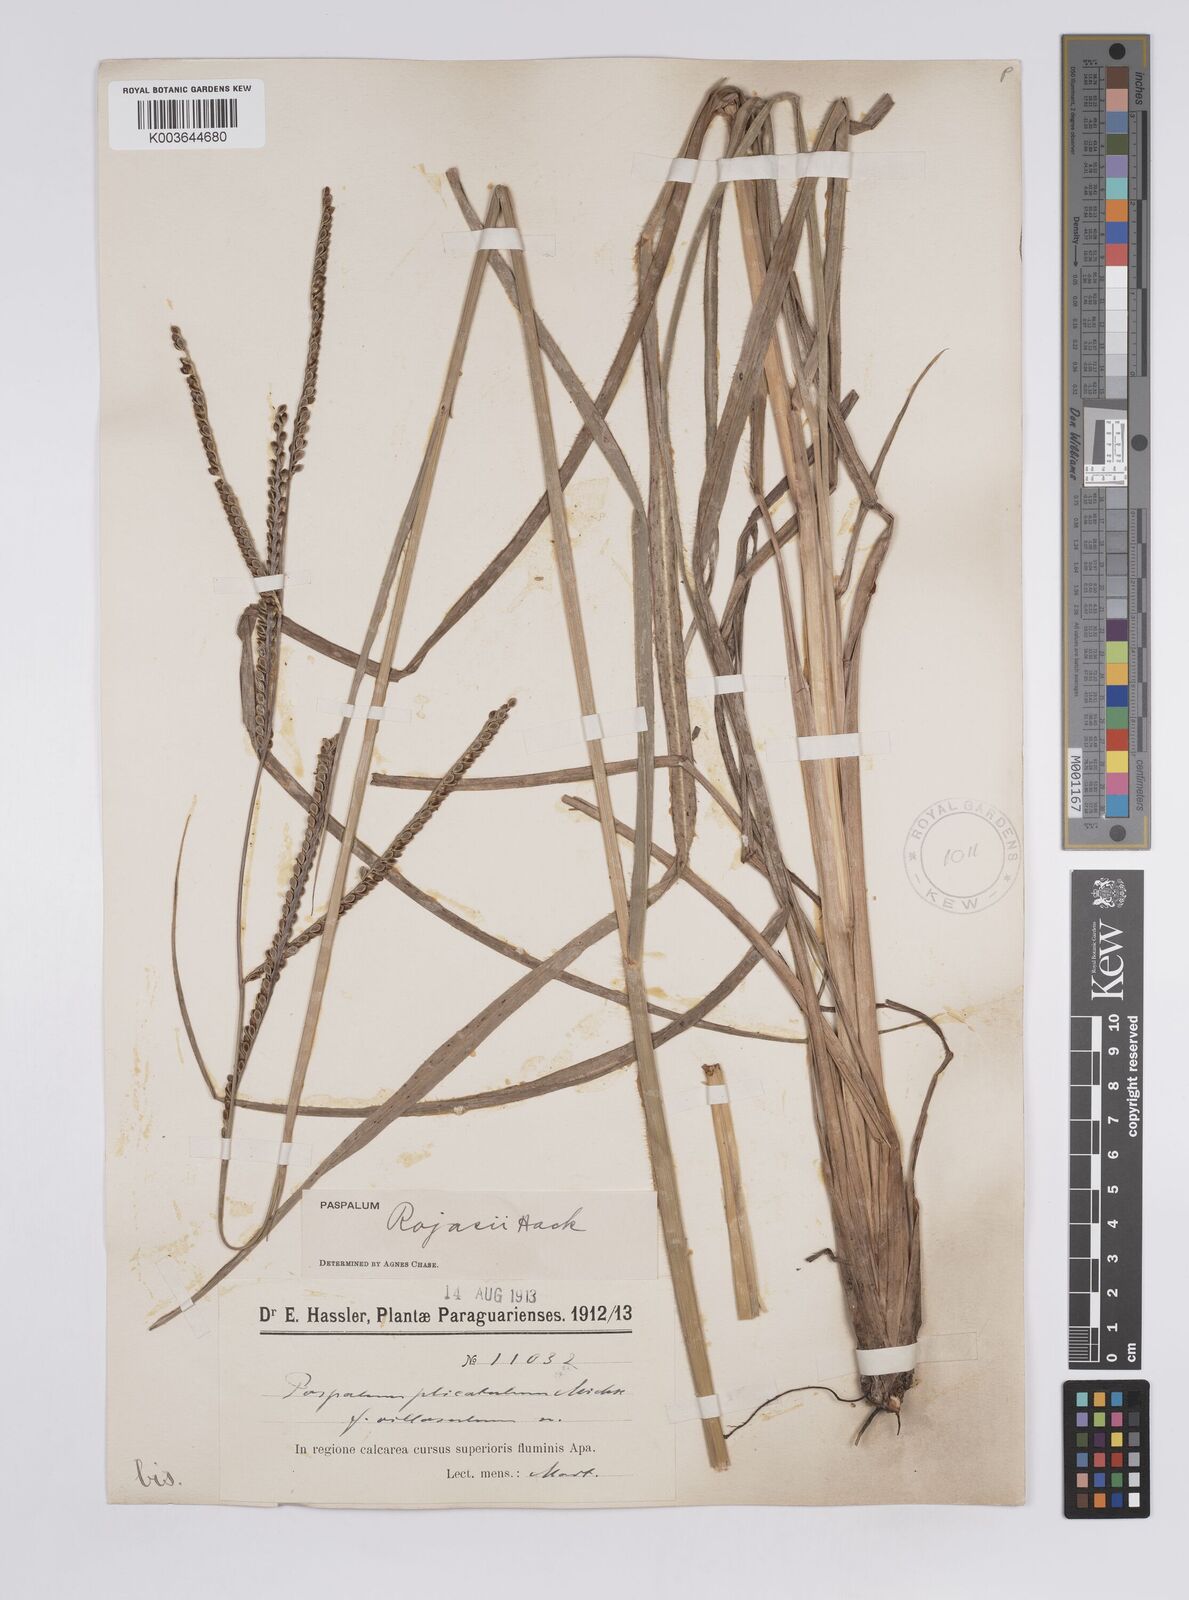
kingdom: Plantae
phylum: Tracheophyta
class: Liliopsida
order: Poales
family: Poaceae
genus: Paspalum
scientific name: Paspalum guenoarum
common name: Wintergreen paspalum
